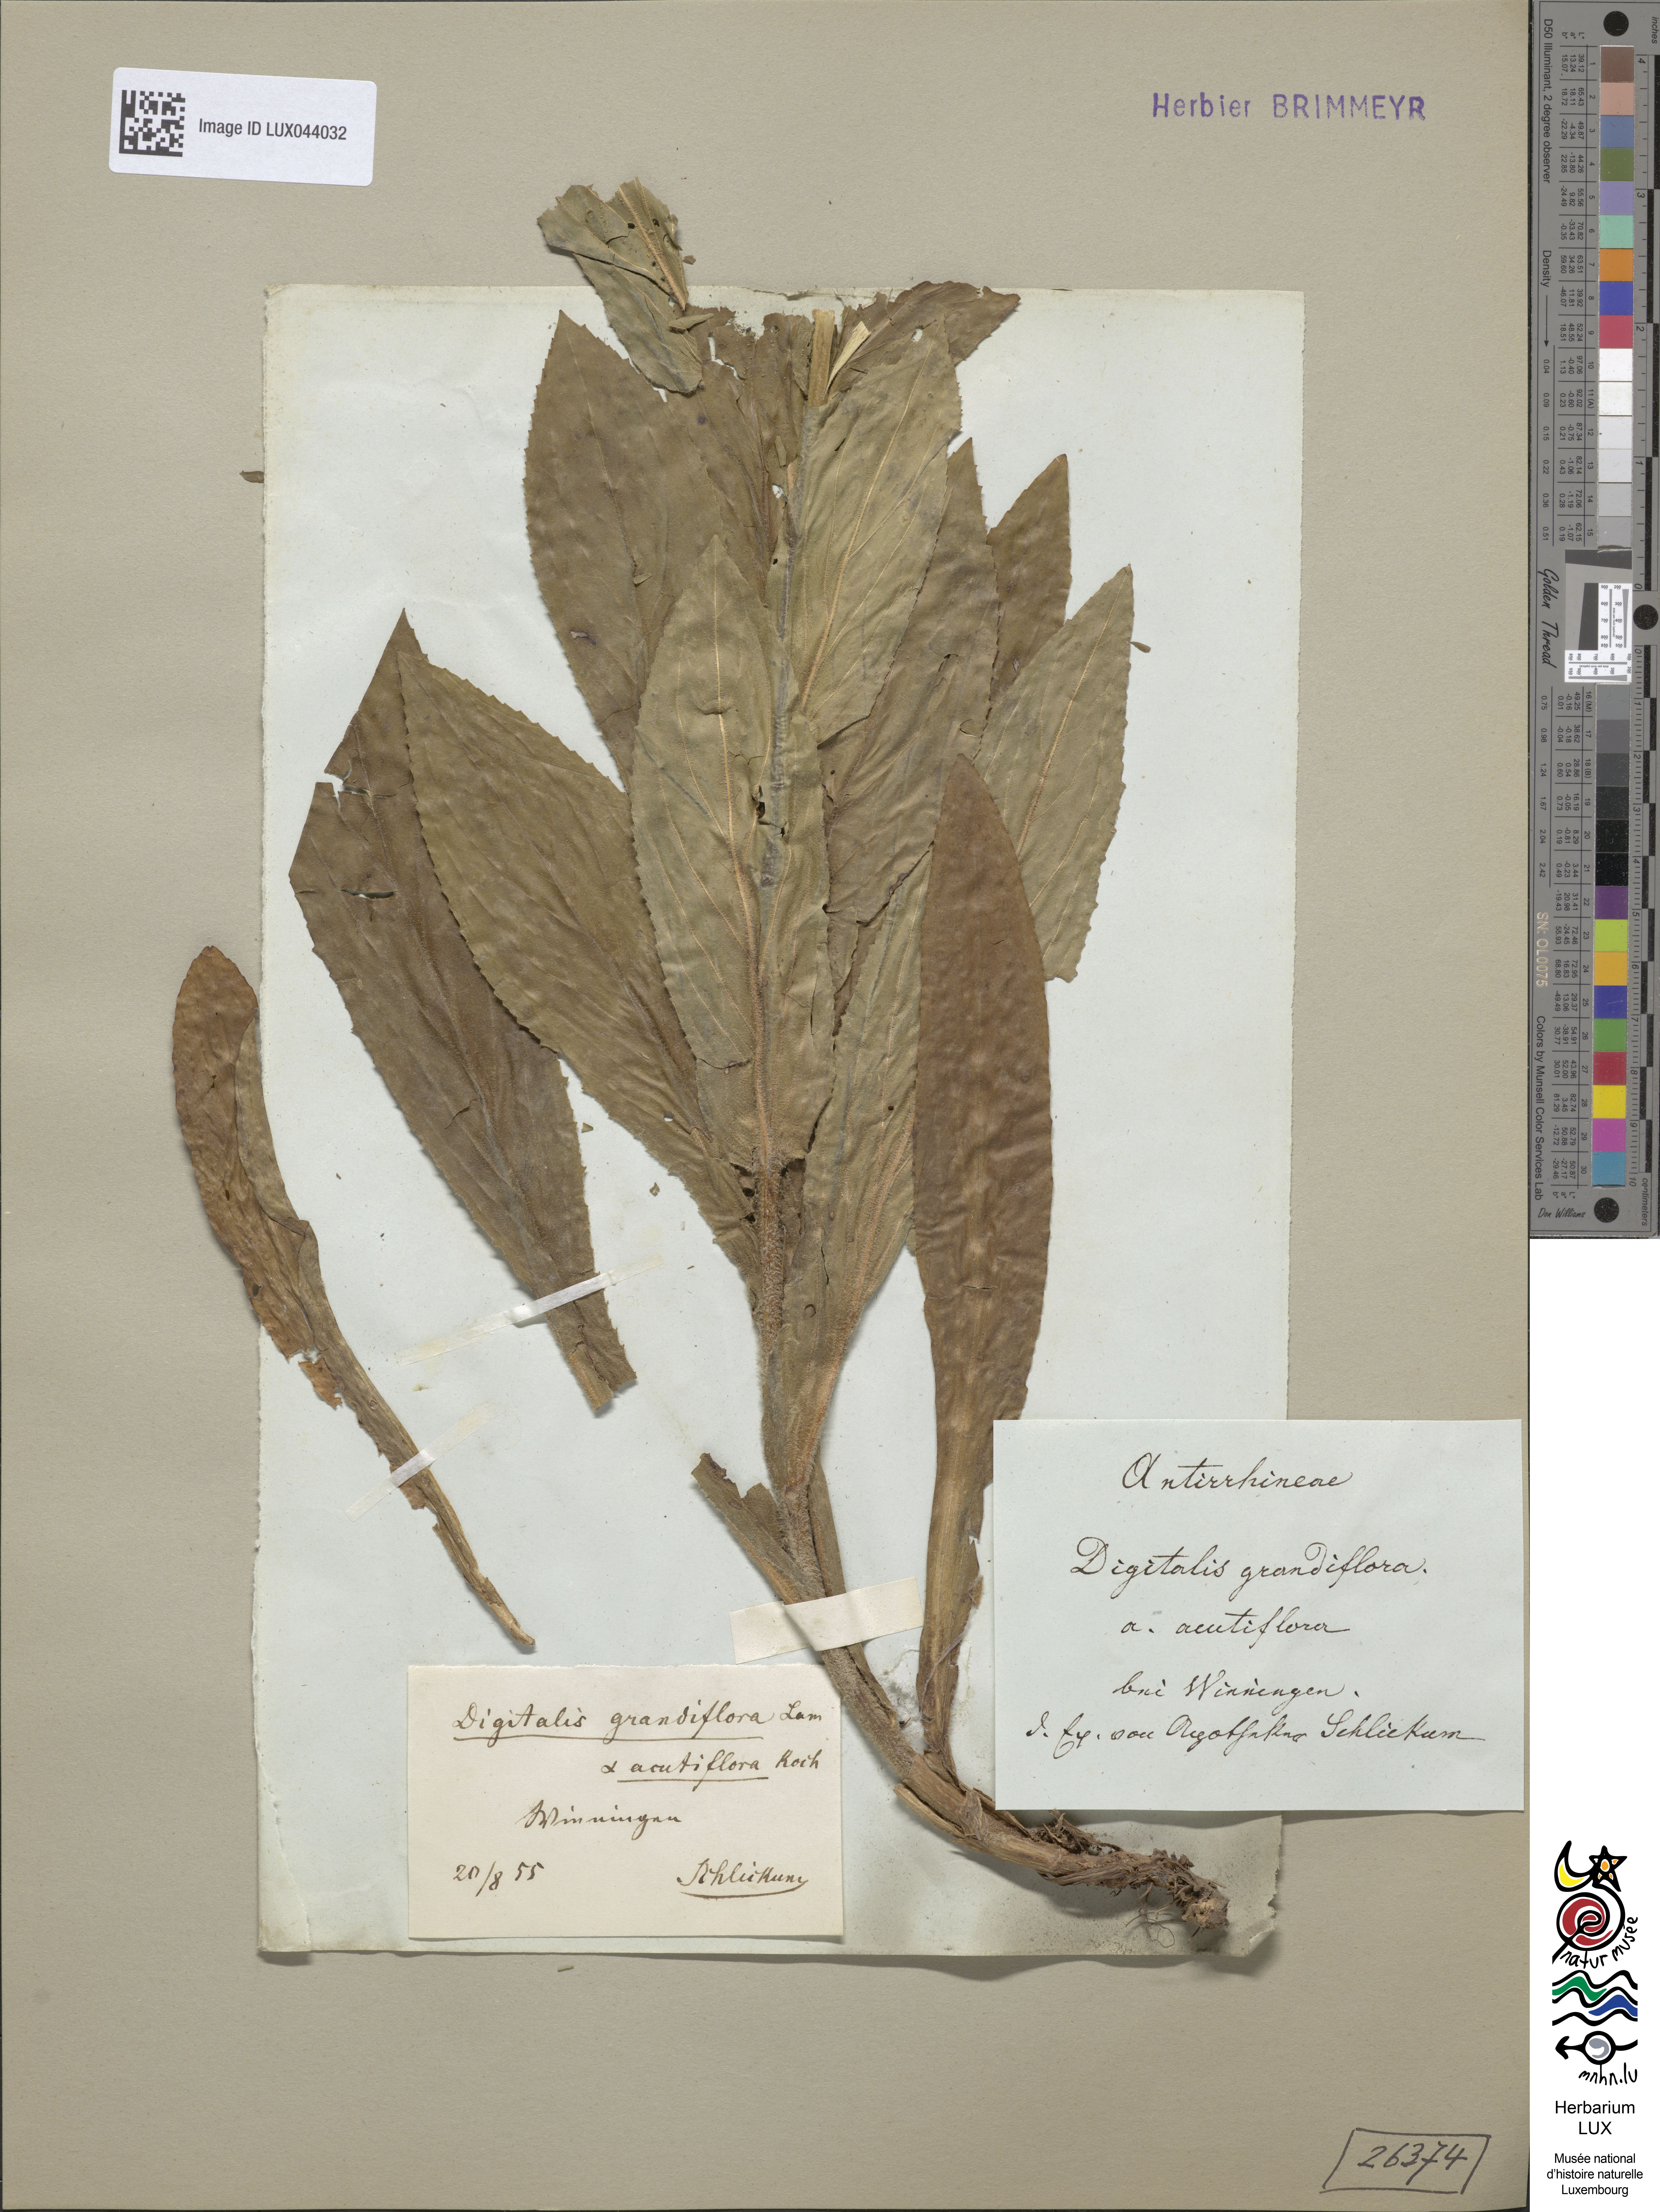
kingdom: Plantae
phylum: Tracheophyta
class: Magnoliopsida
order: Lamiales
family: Plantaginaceae
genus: Digitalis
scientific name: Digitalis grandiflora
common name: Yellow foxglove
